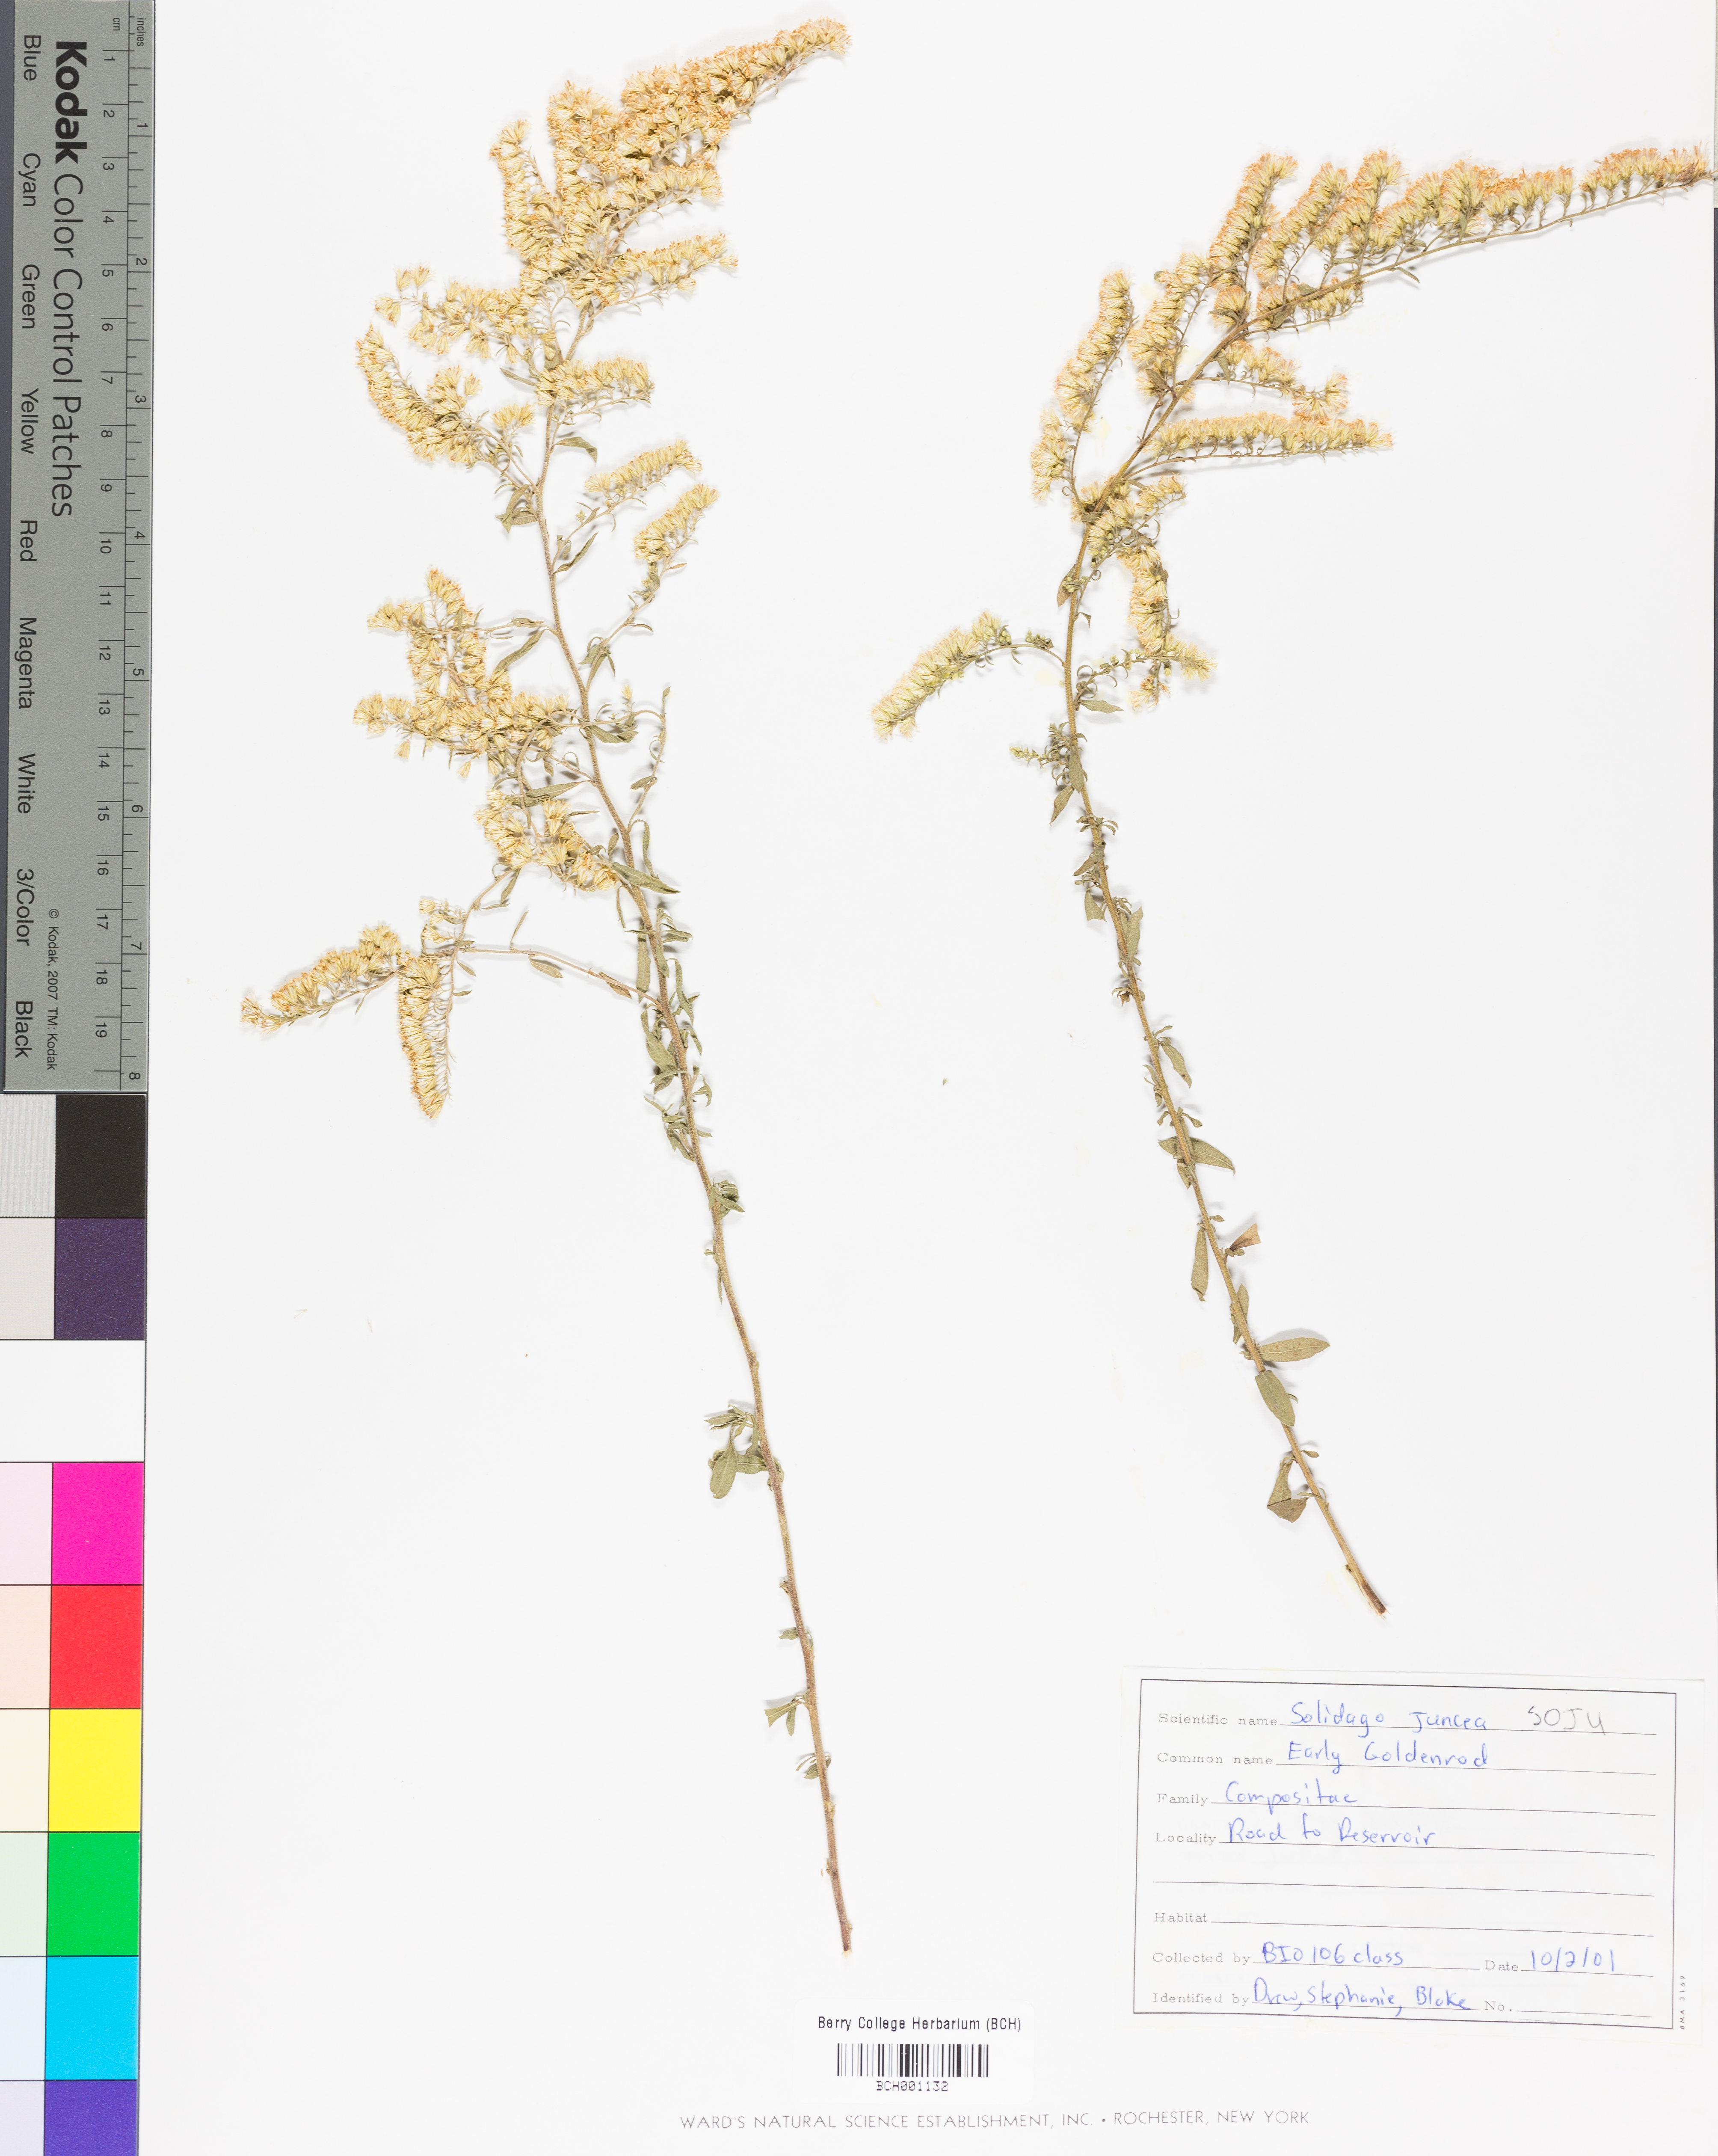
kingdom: Plantae
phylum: Tracheophyta
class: Magnoliopsida
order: Asterales
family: Asteraceae
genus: Solidago
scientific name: Solidago juncea
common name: Early goldenrod
